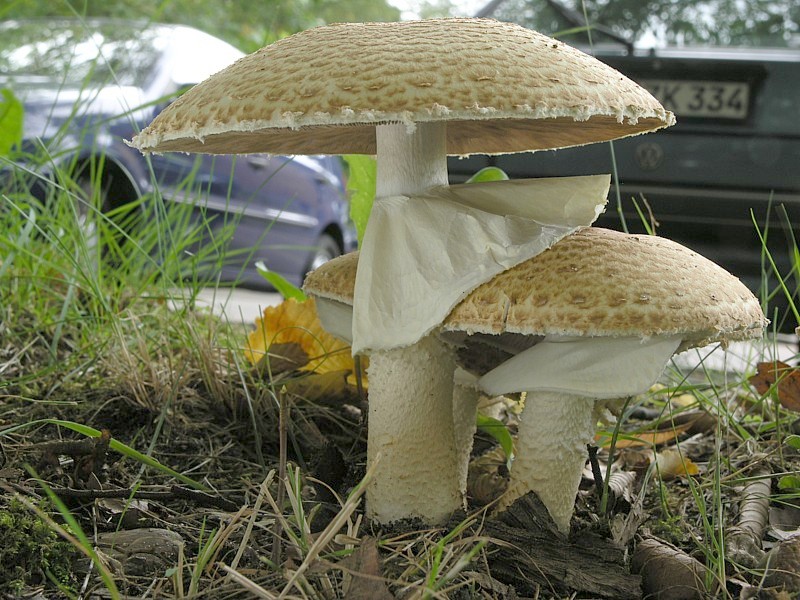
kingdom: Fungi
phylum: Basidiomycota
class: Agaricomycetes
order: Agaricales
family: Agaricaceae
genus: Agaricus
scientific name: Agaricus augustus
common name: Prince
